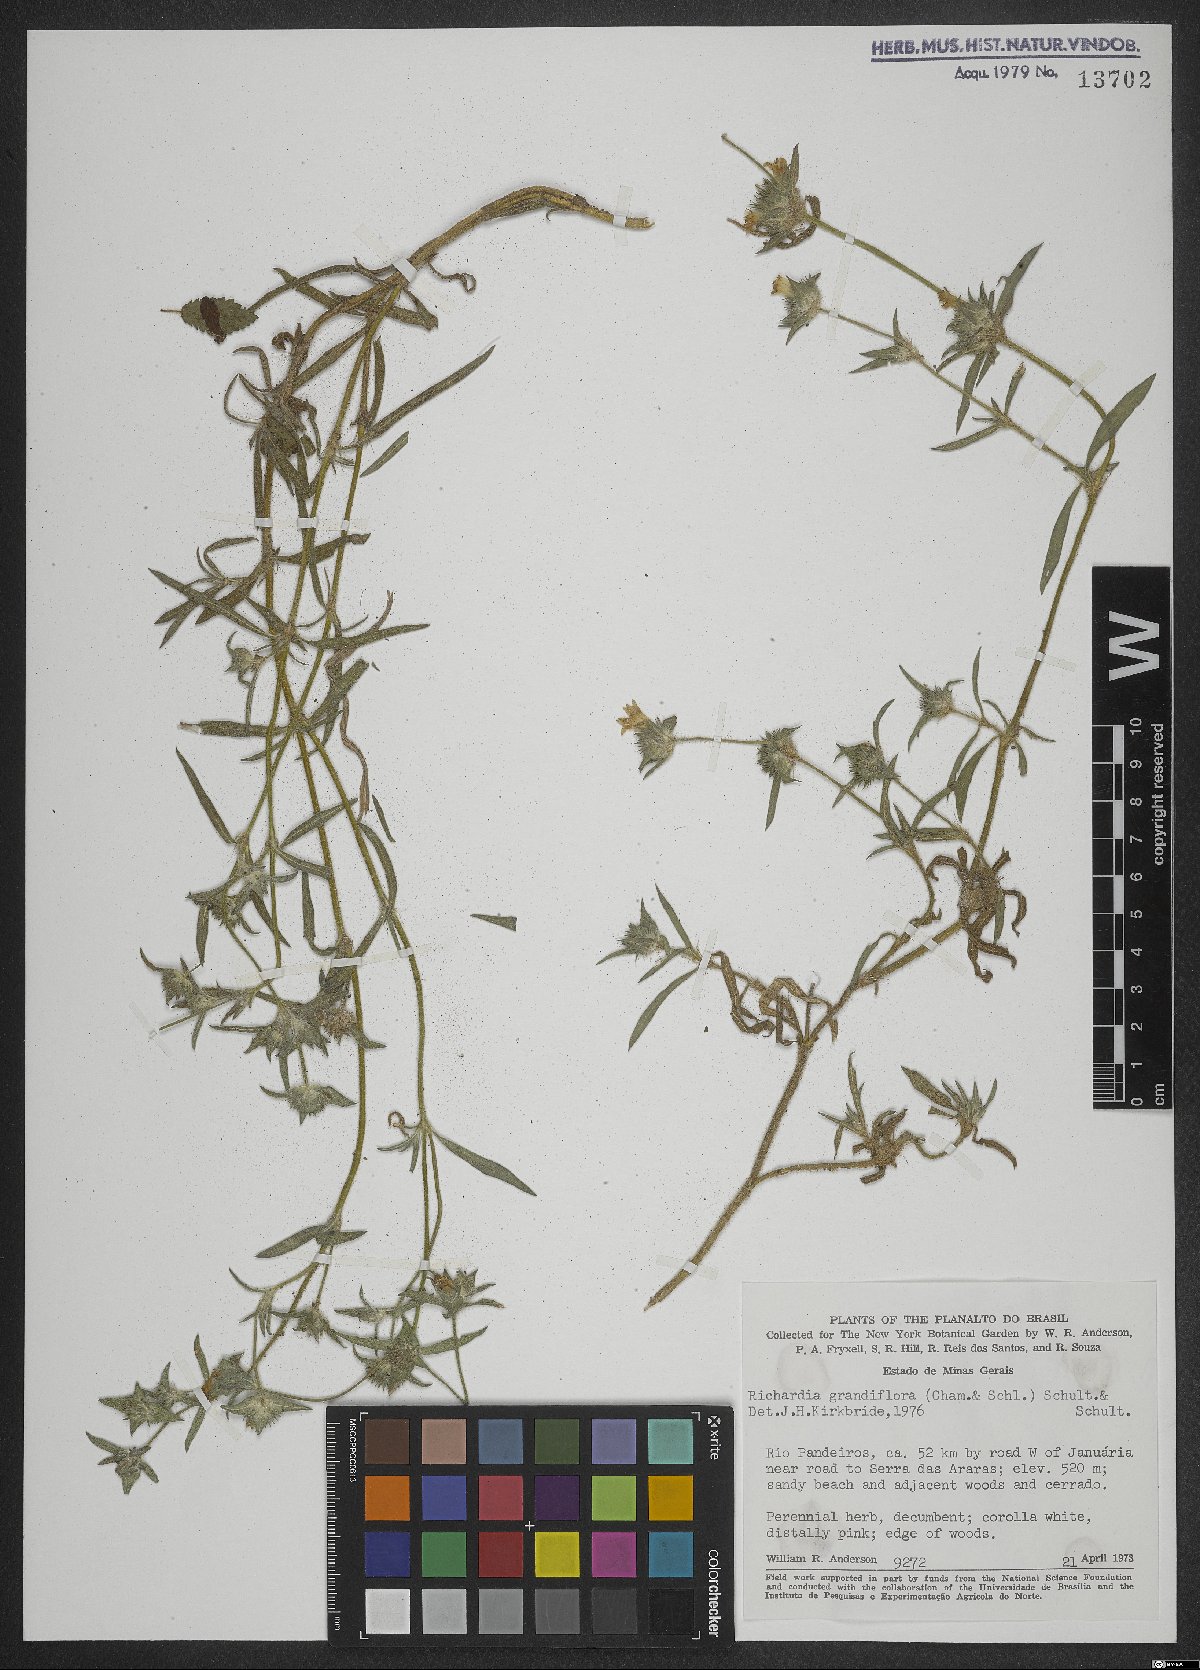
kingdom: Plantae
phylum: Tracheophyta
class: Magnoliopsida
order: Gentianales
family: Rubiaceae
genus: Richardia
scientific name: Richardia grandiflora
